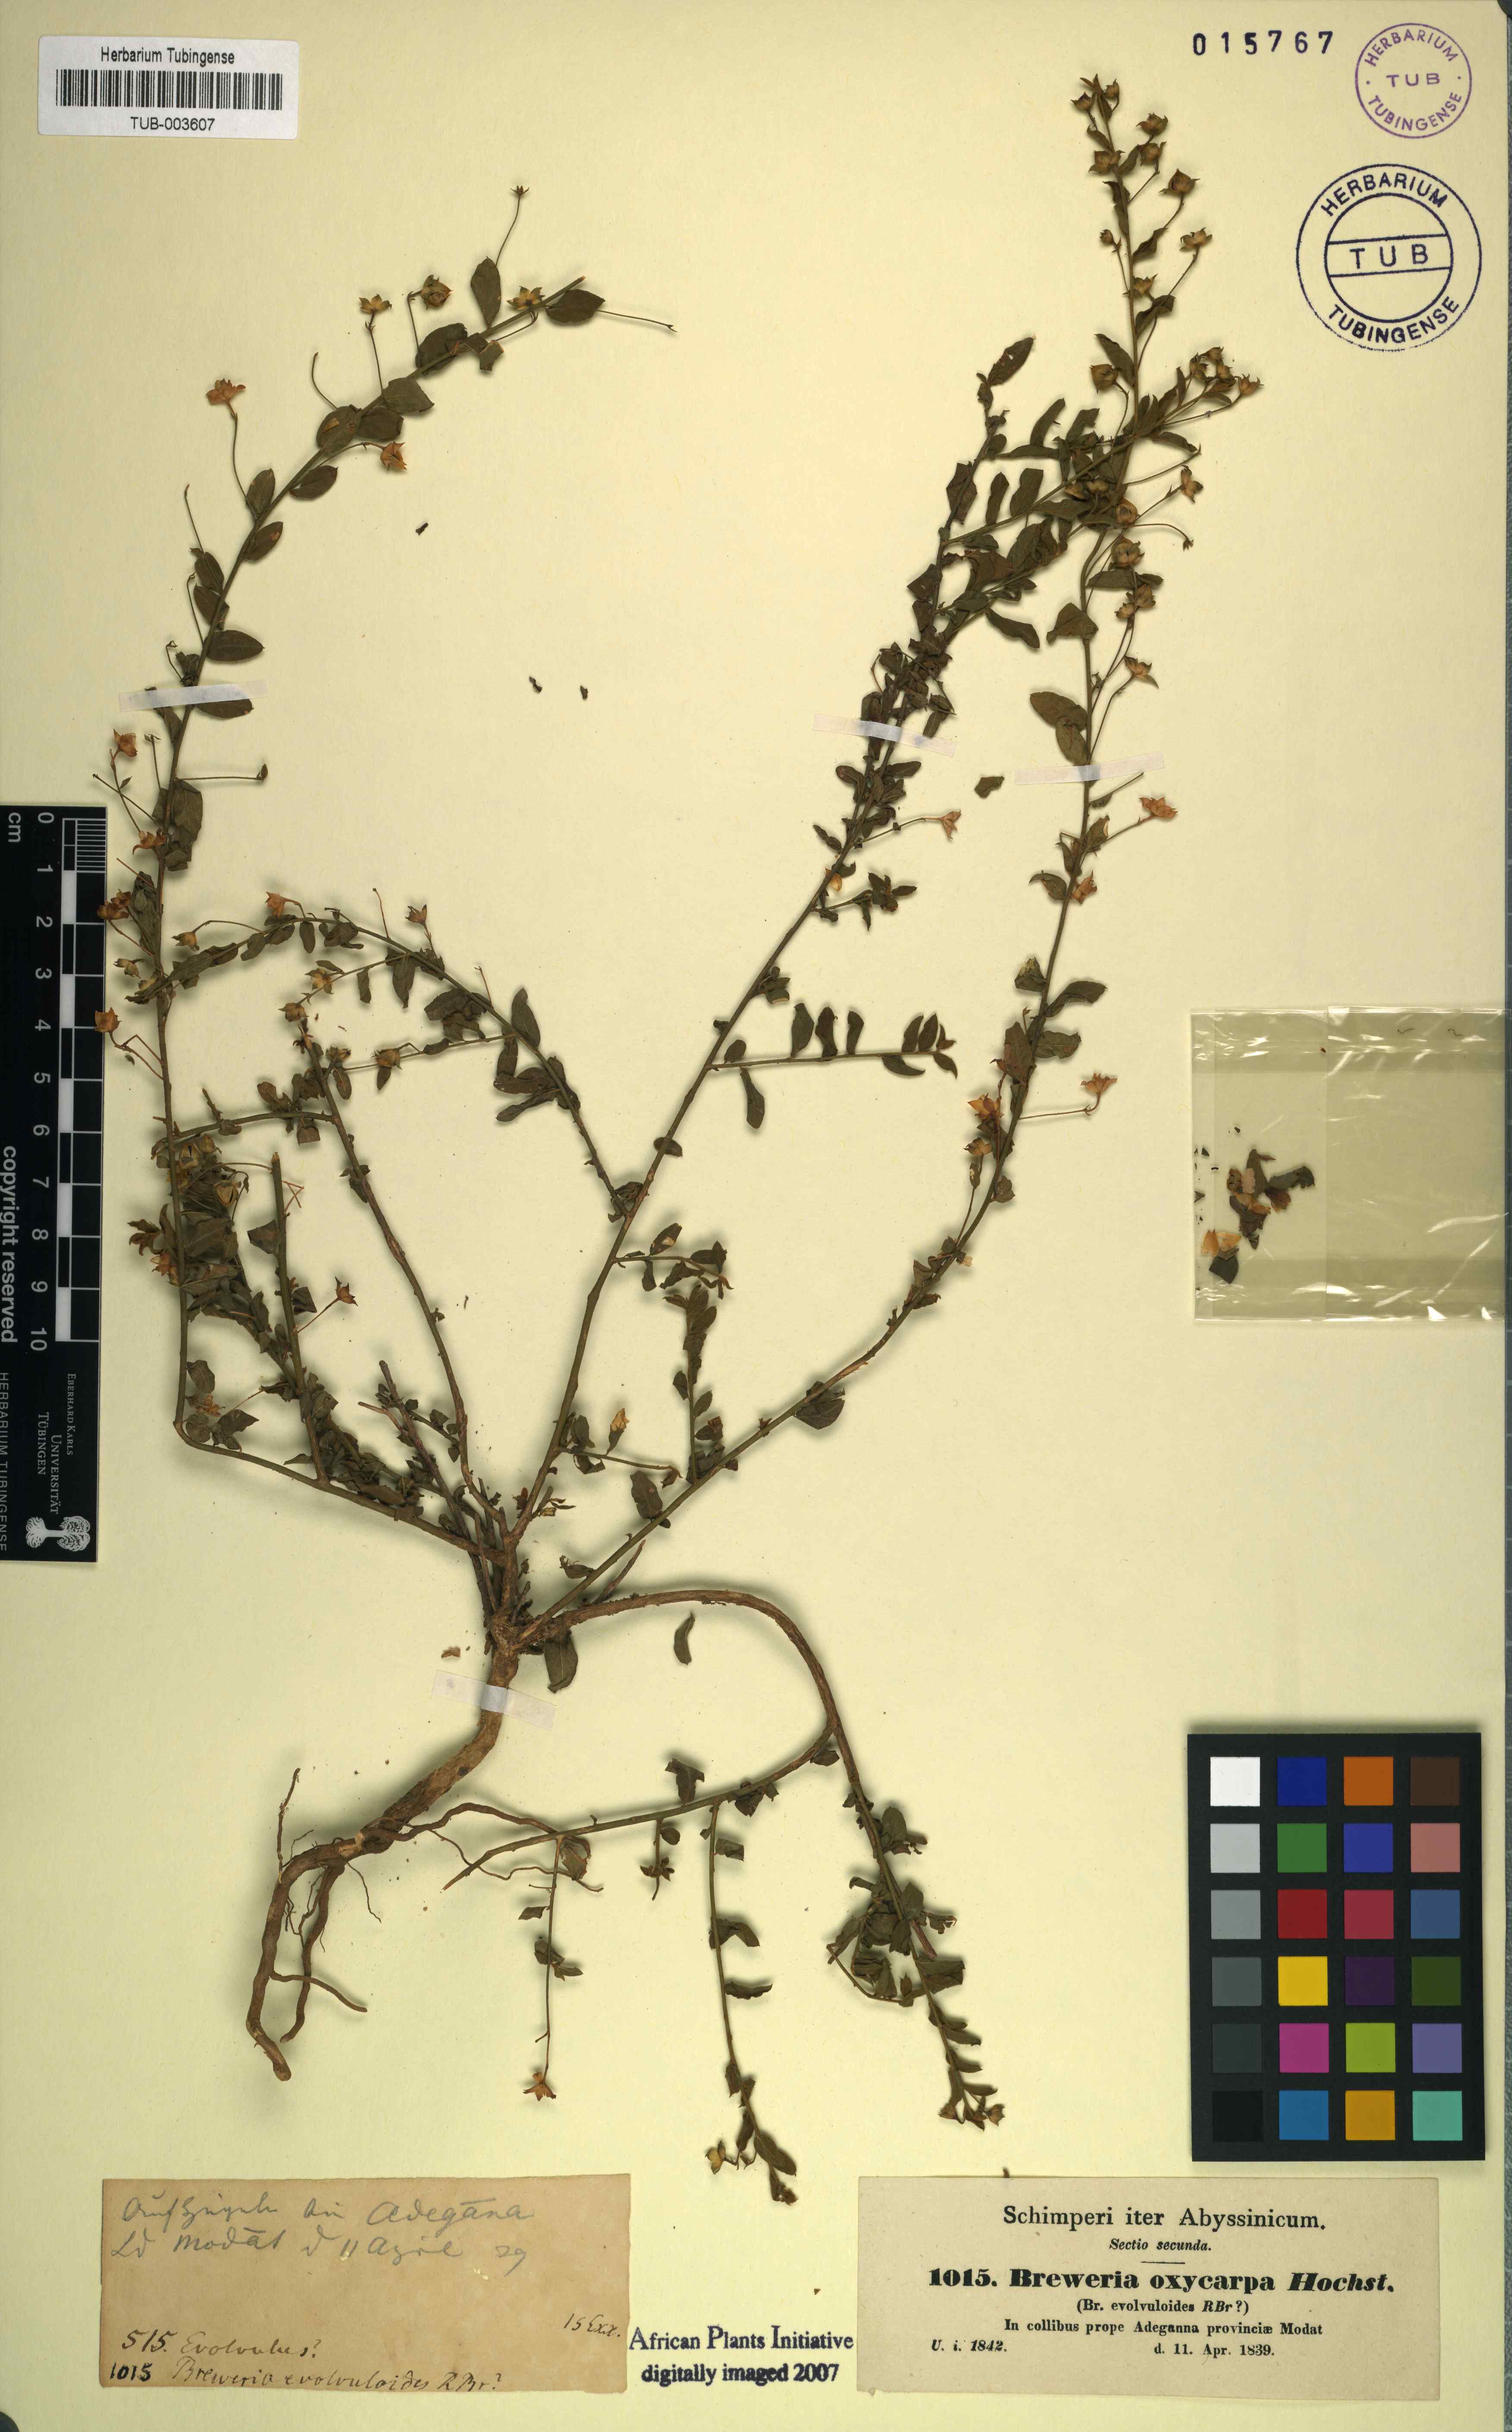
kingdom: Plantae
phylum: Tracheophyta
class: Magnoliopsida
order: Solanales
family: Convolvulaceae
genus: Seddera
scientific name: Seddera evolvuloides
